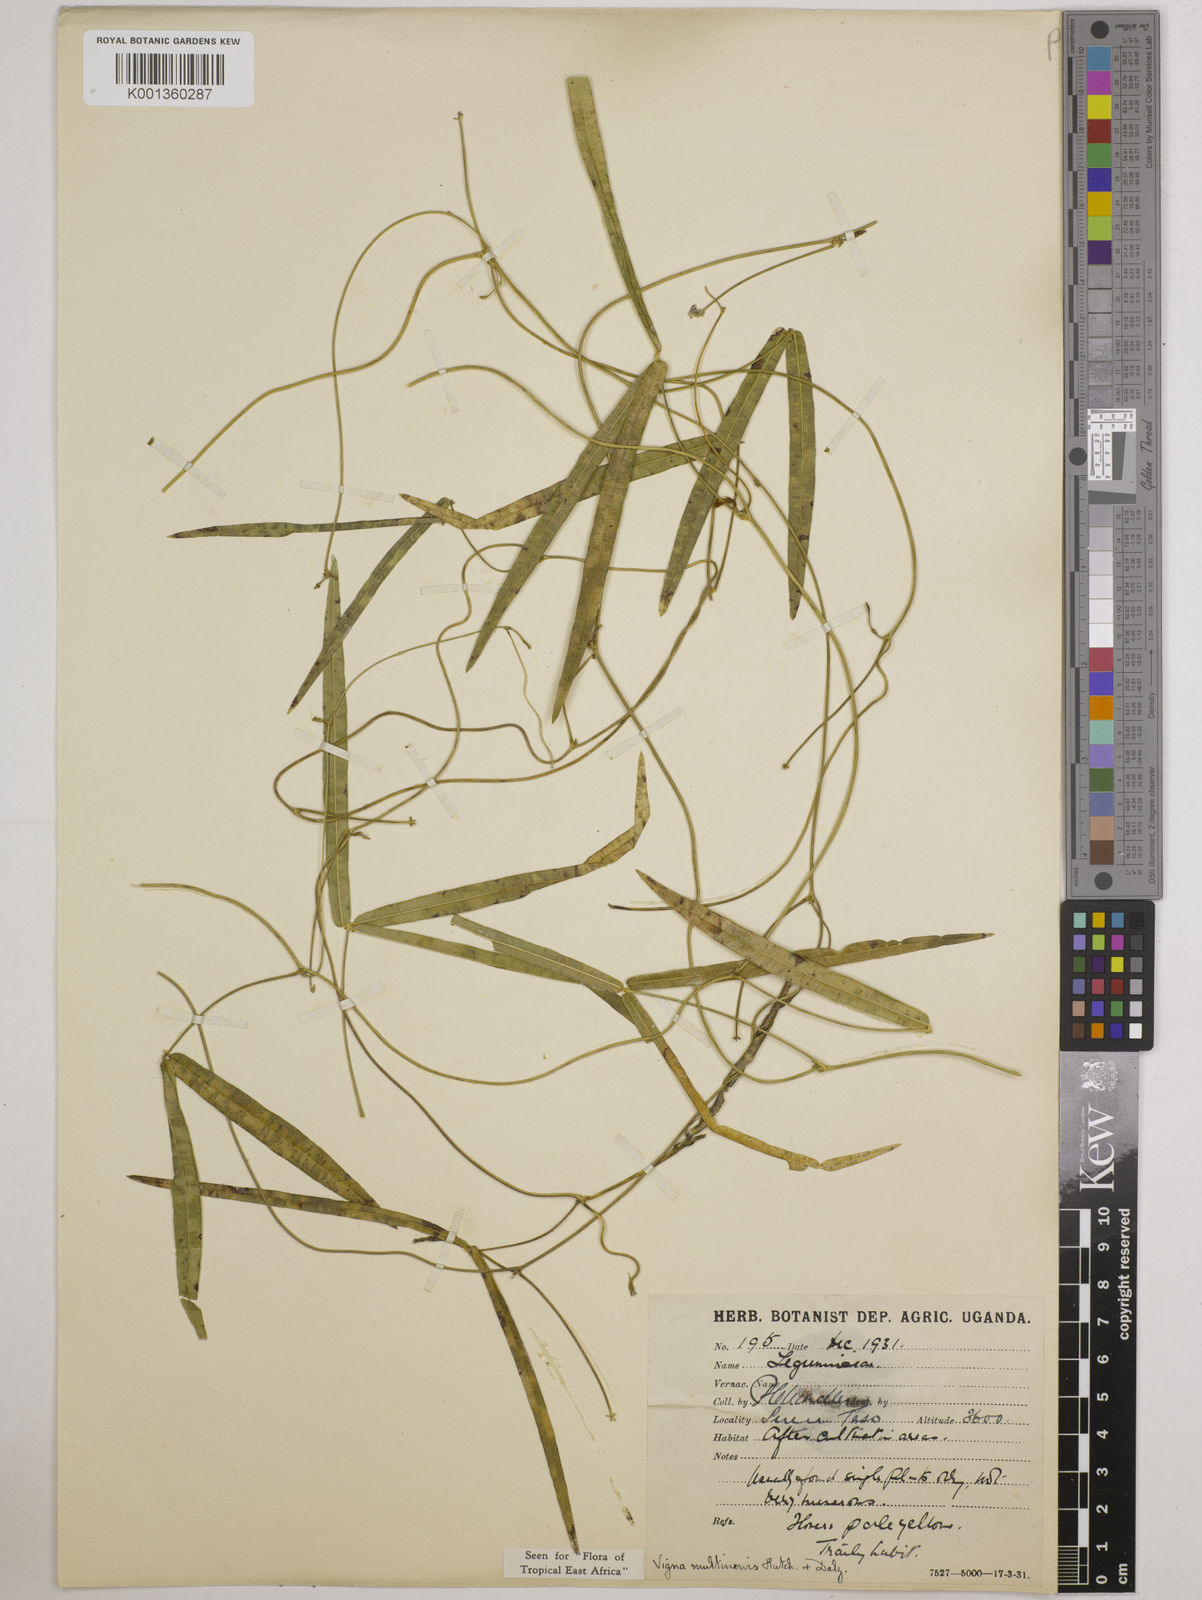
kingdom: Plantae
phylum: Tracheophyta
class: Magnoliopsida
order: Fabales
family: Fabaceae
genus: Vigna
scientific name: Vigna multinervis
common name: Fula-pulaar
